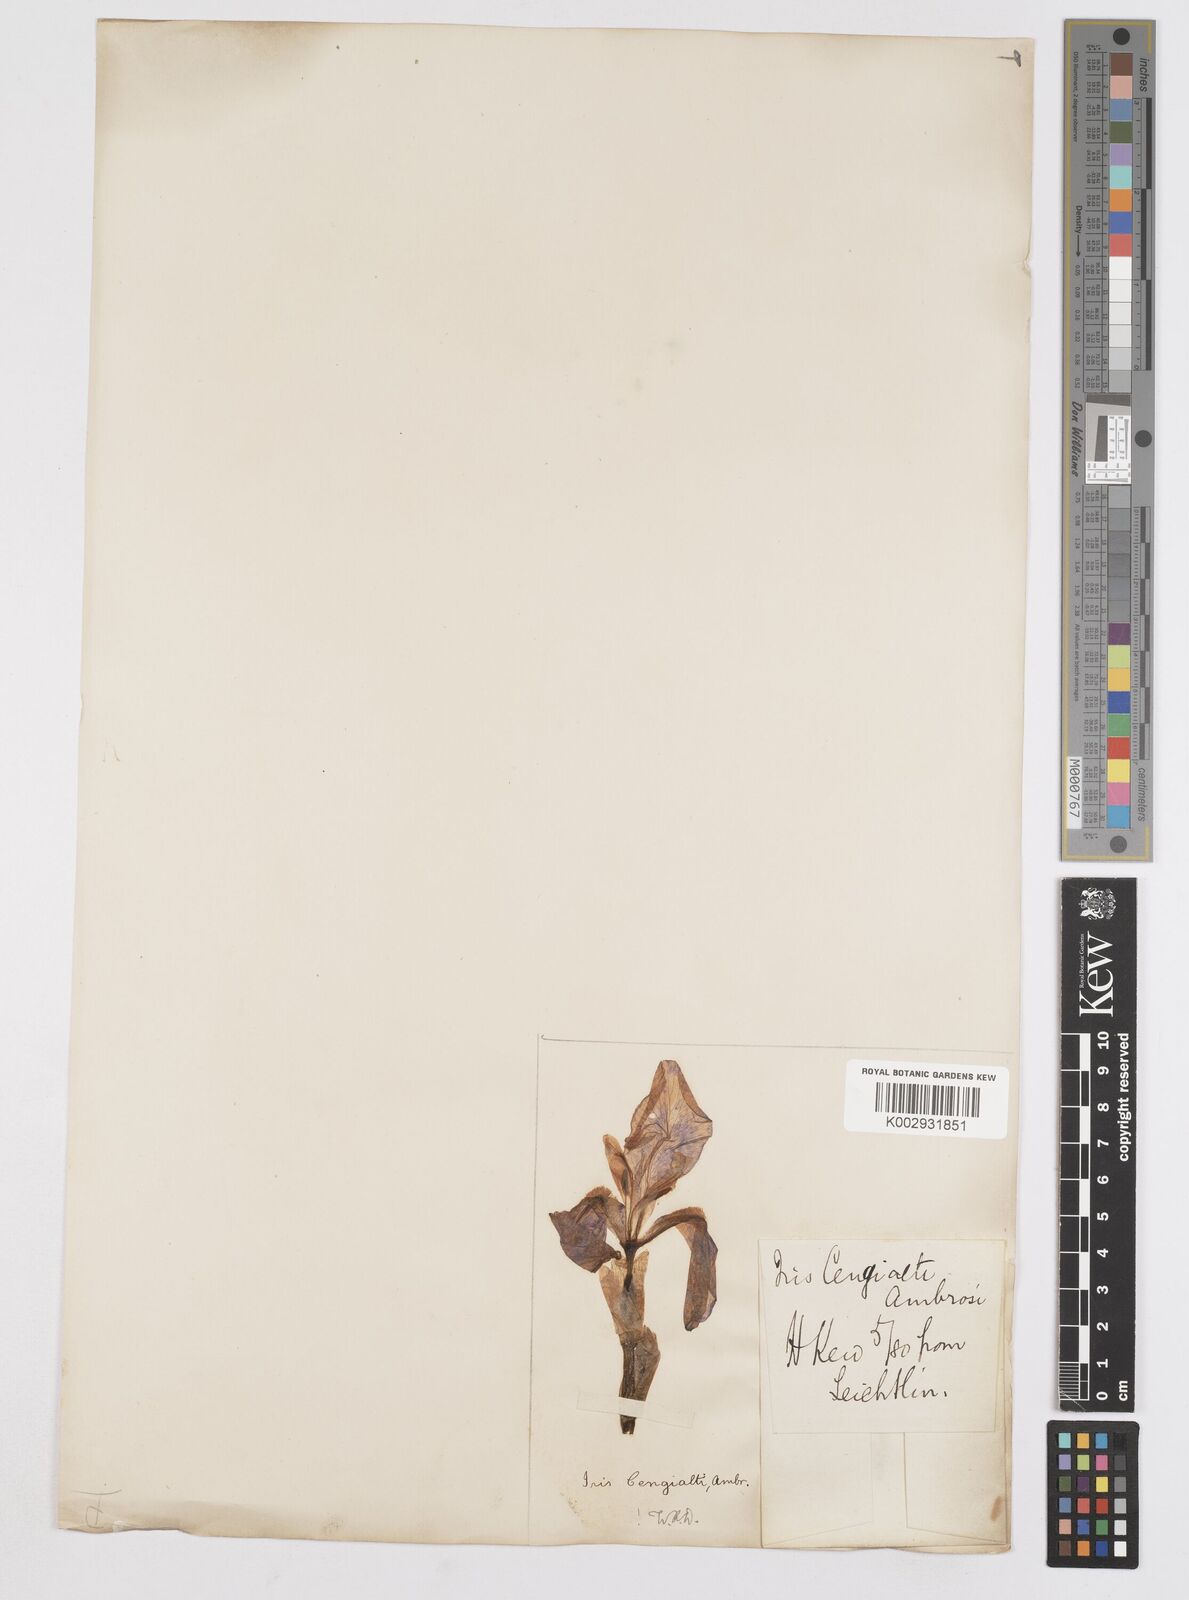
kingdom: Plantae
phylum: Tracheophyta
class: Liliopsida
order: Asparagales
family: Iridaceae
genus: Iris
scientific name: Iris pallida
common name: Sweet iris
